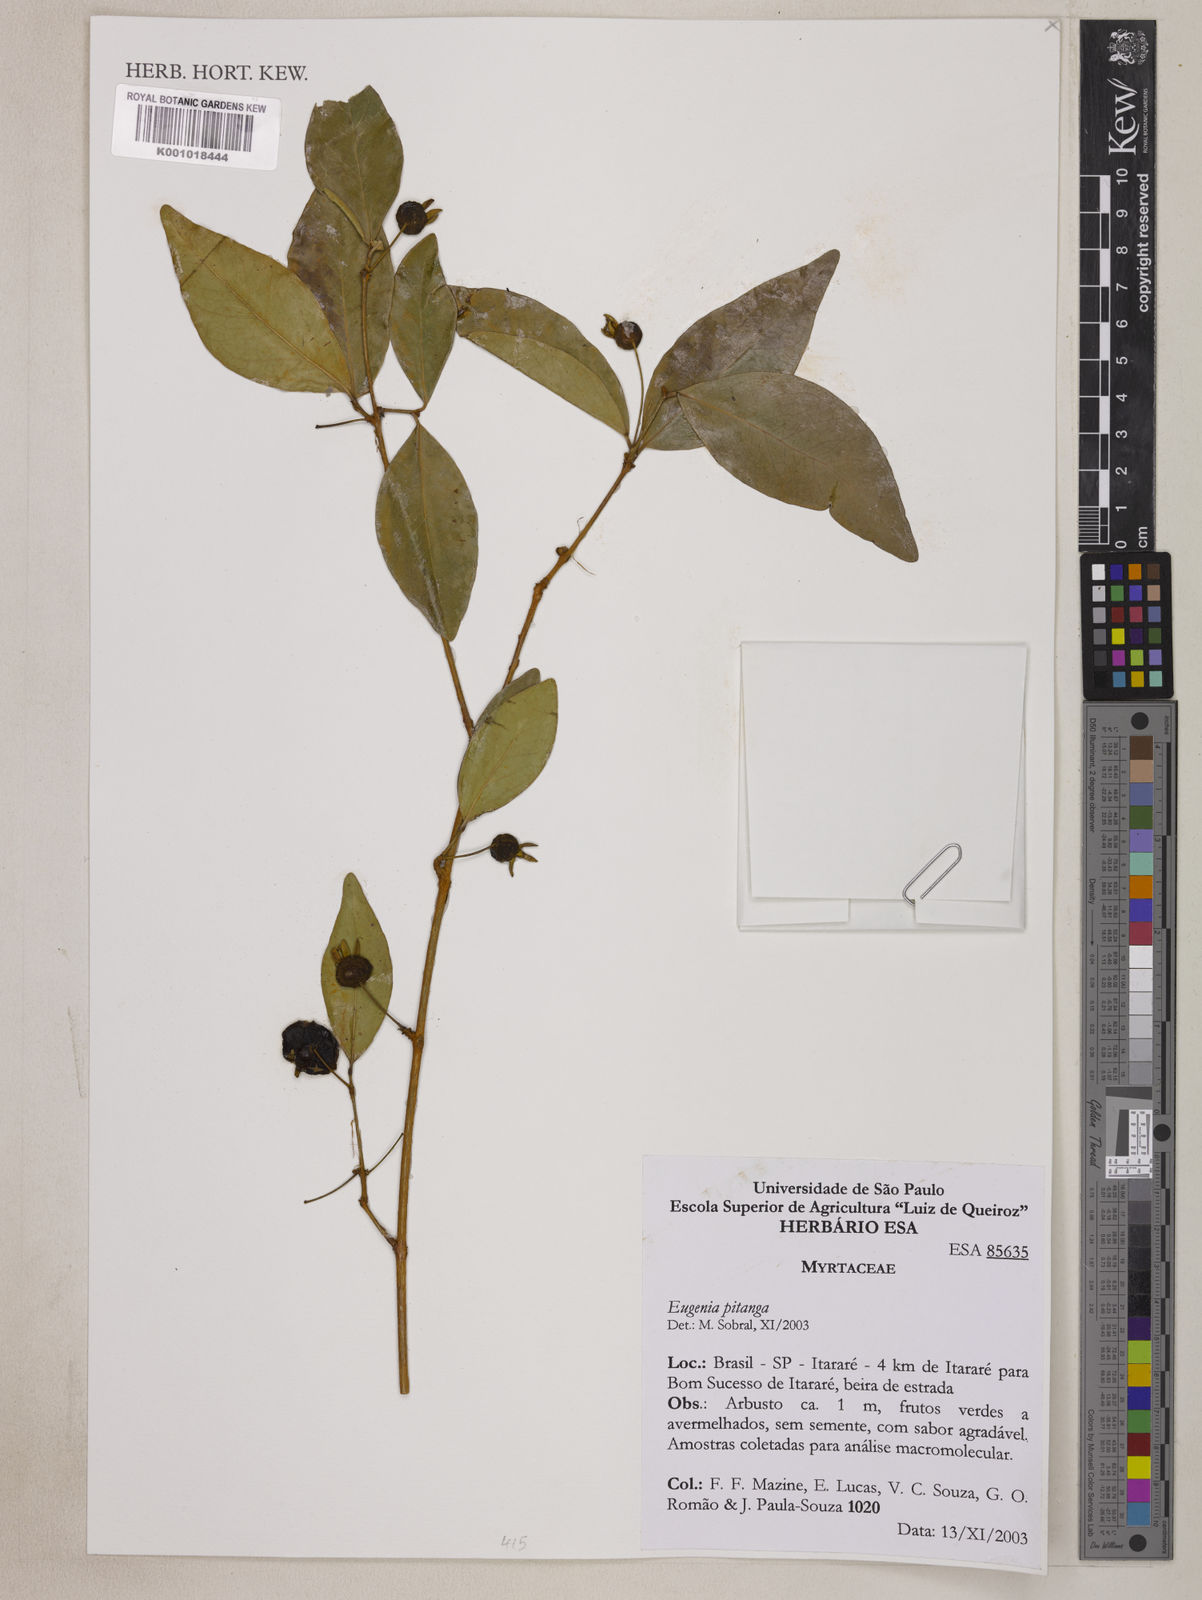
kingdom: Plantae
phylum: Tracheophyta
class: Magnoliopsida
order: Myrtales
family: Myrtaceae
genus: Eugenia
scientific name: Eugenia
